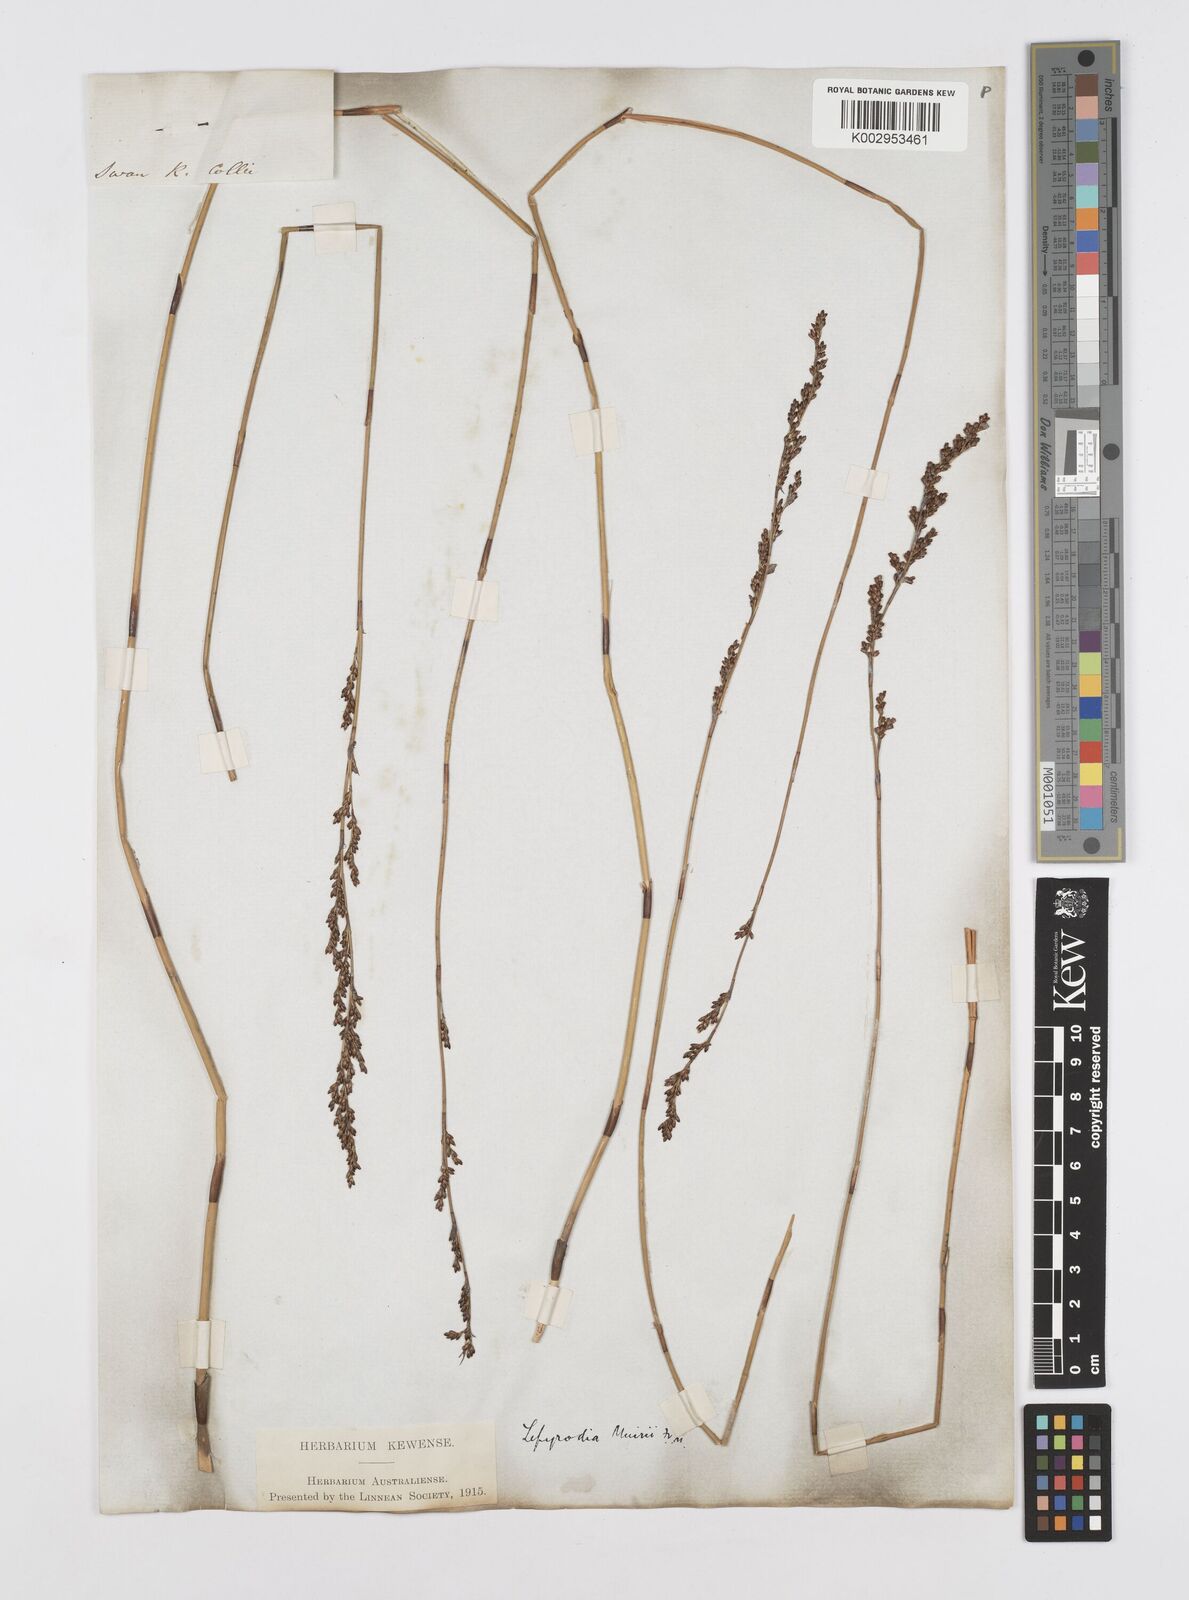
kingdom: Plantae
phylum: Tracheophyta
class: Liliopsida
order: Poales
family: Restionaceae
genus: Lepyrodia
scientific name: Lepyrodia muirii
